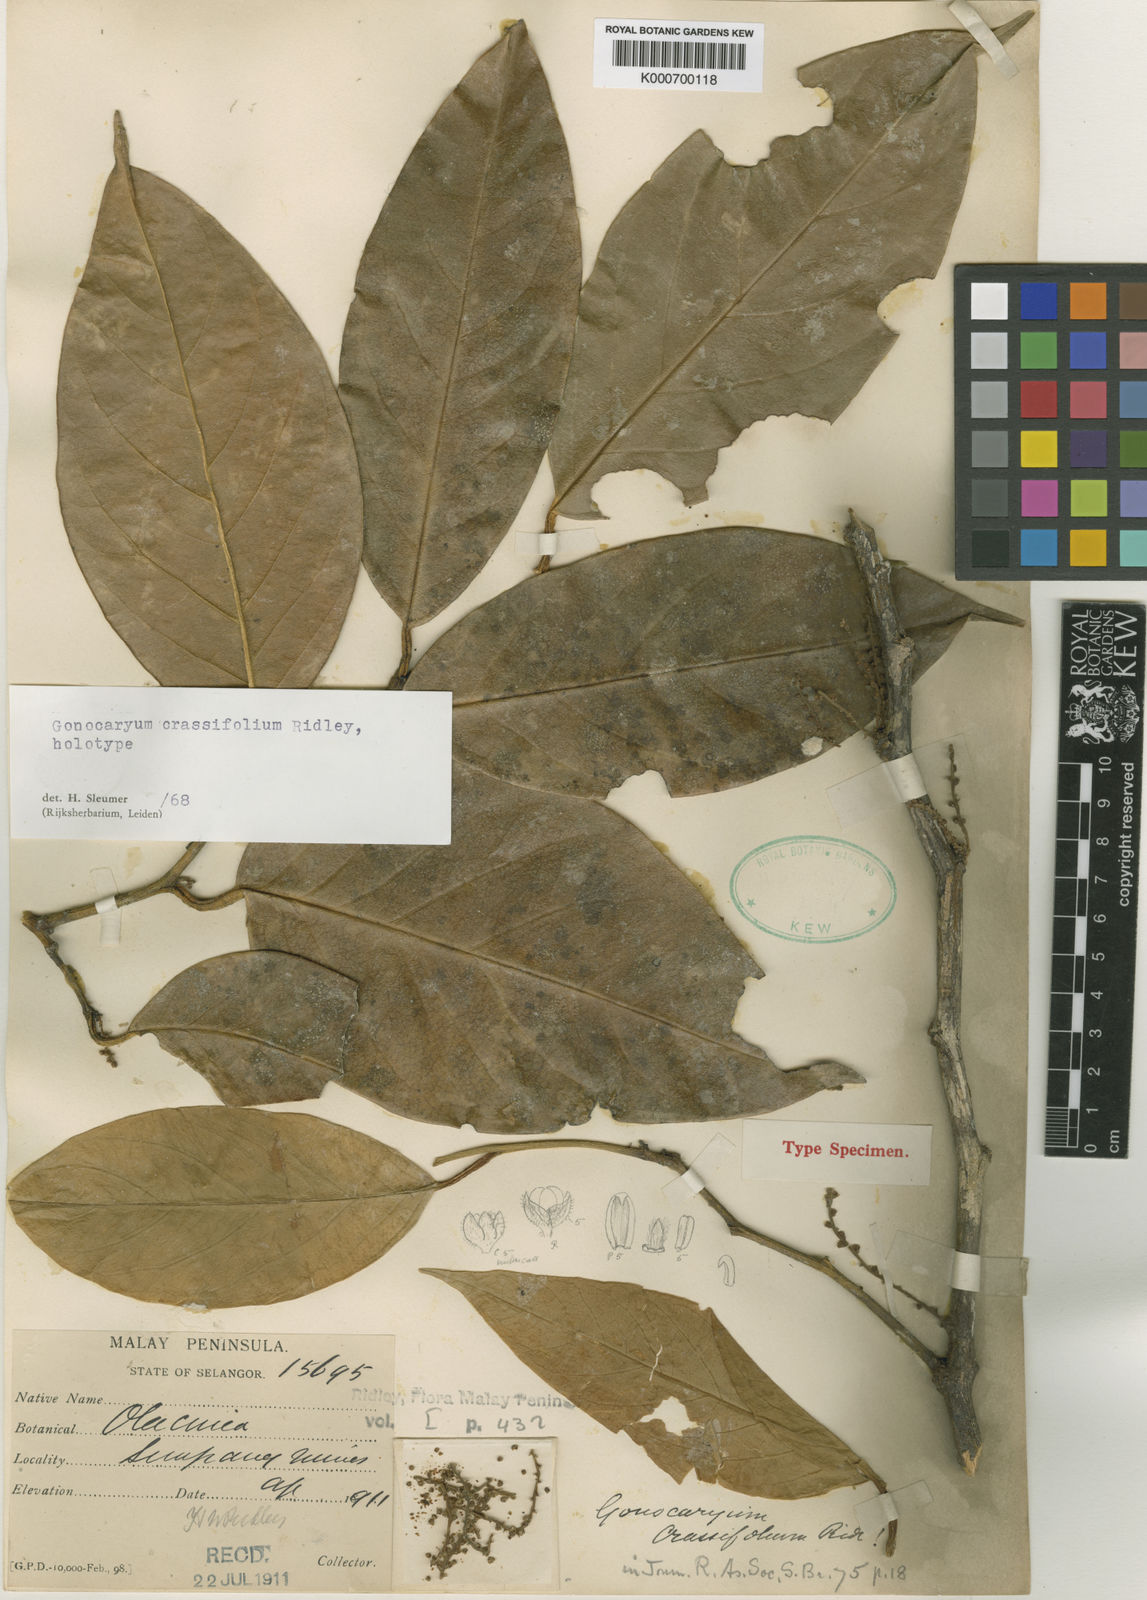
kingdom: Plantae
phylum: Tracheophyta
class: Magnoliopsida
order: Cardiopteridales
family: Cardiopteridaceae
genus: Gonocaryum
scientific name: Gonocaryum crassifolium
